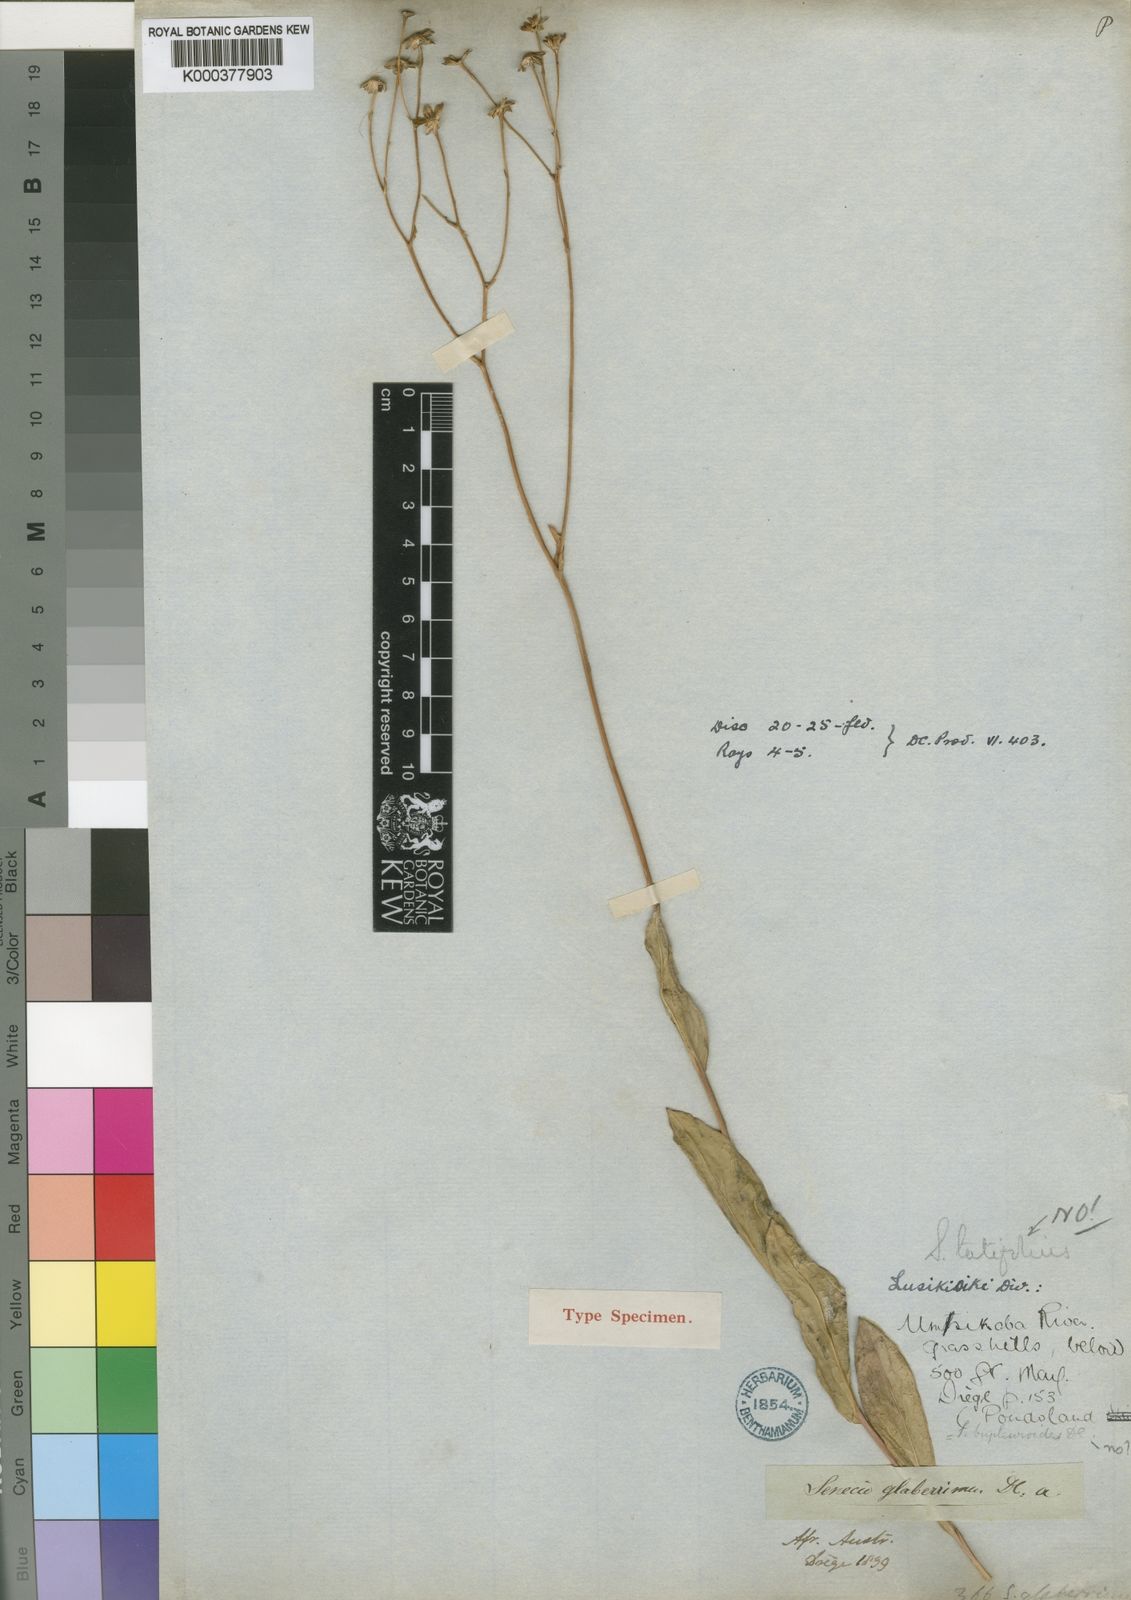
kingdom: Plantae
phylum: Tracheophyta
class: Magnoliopsida
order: Asterales
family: Asteraceae
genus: Senecio
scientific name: Senecio glaberrimus
